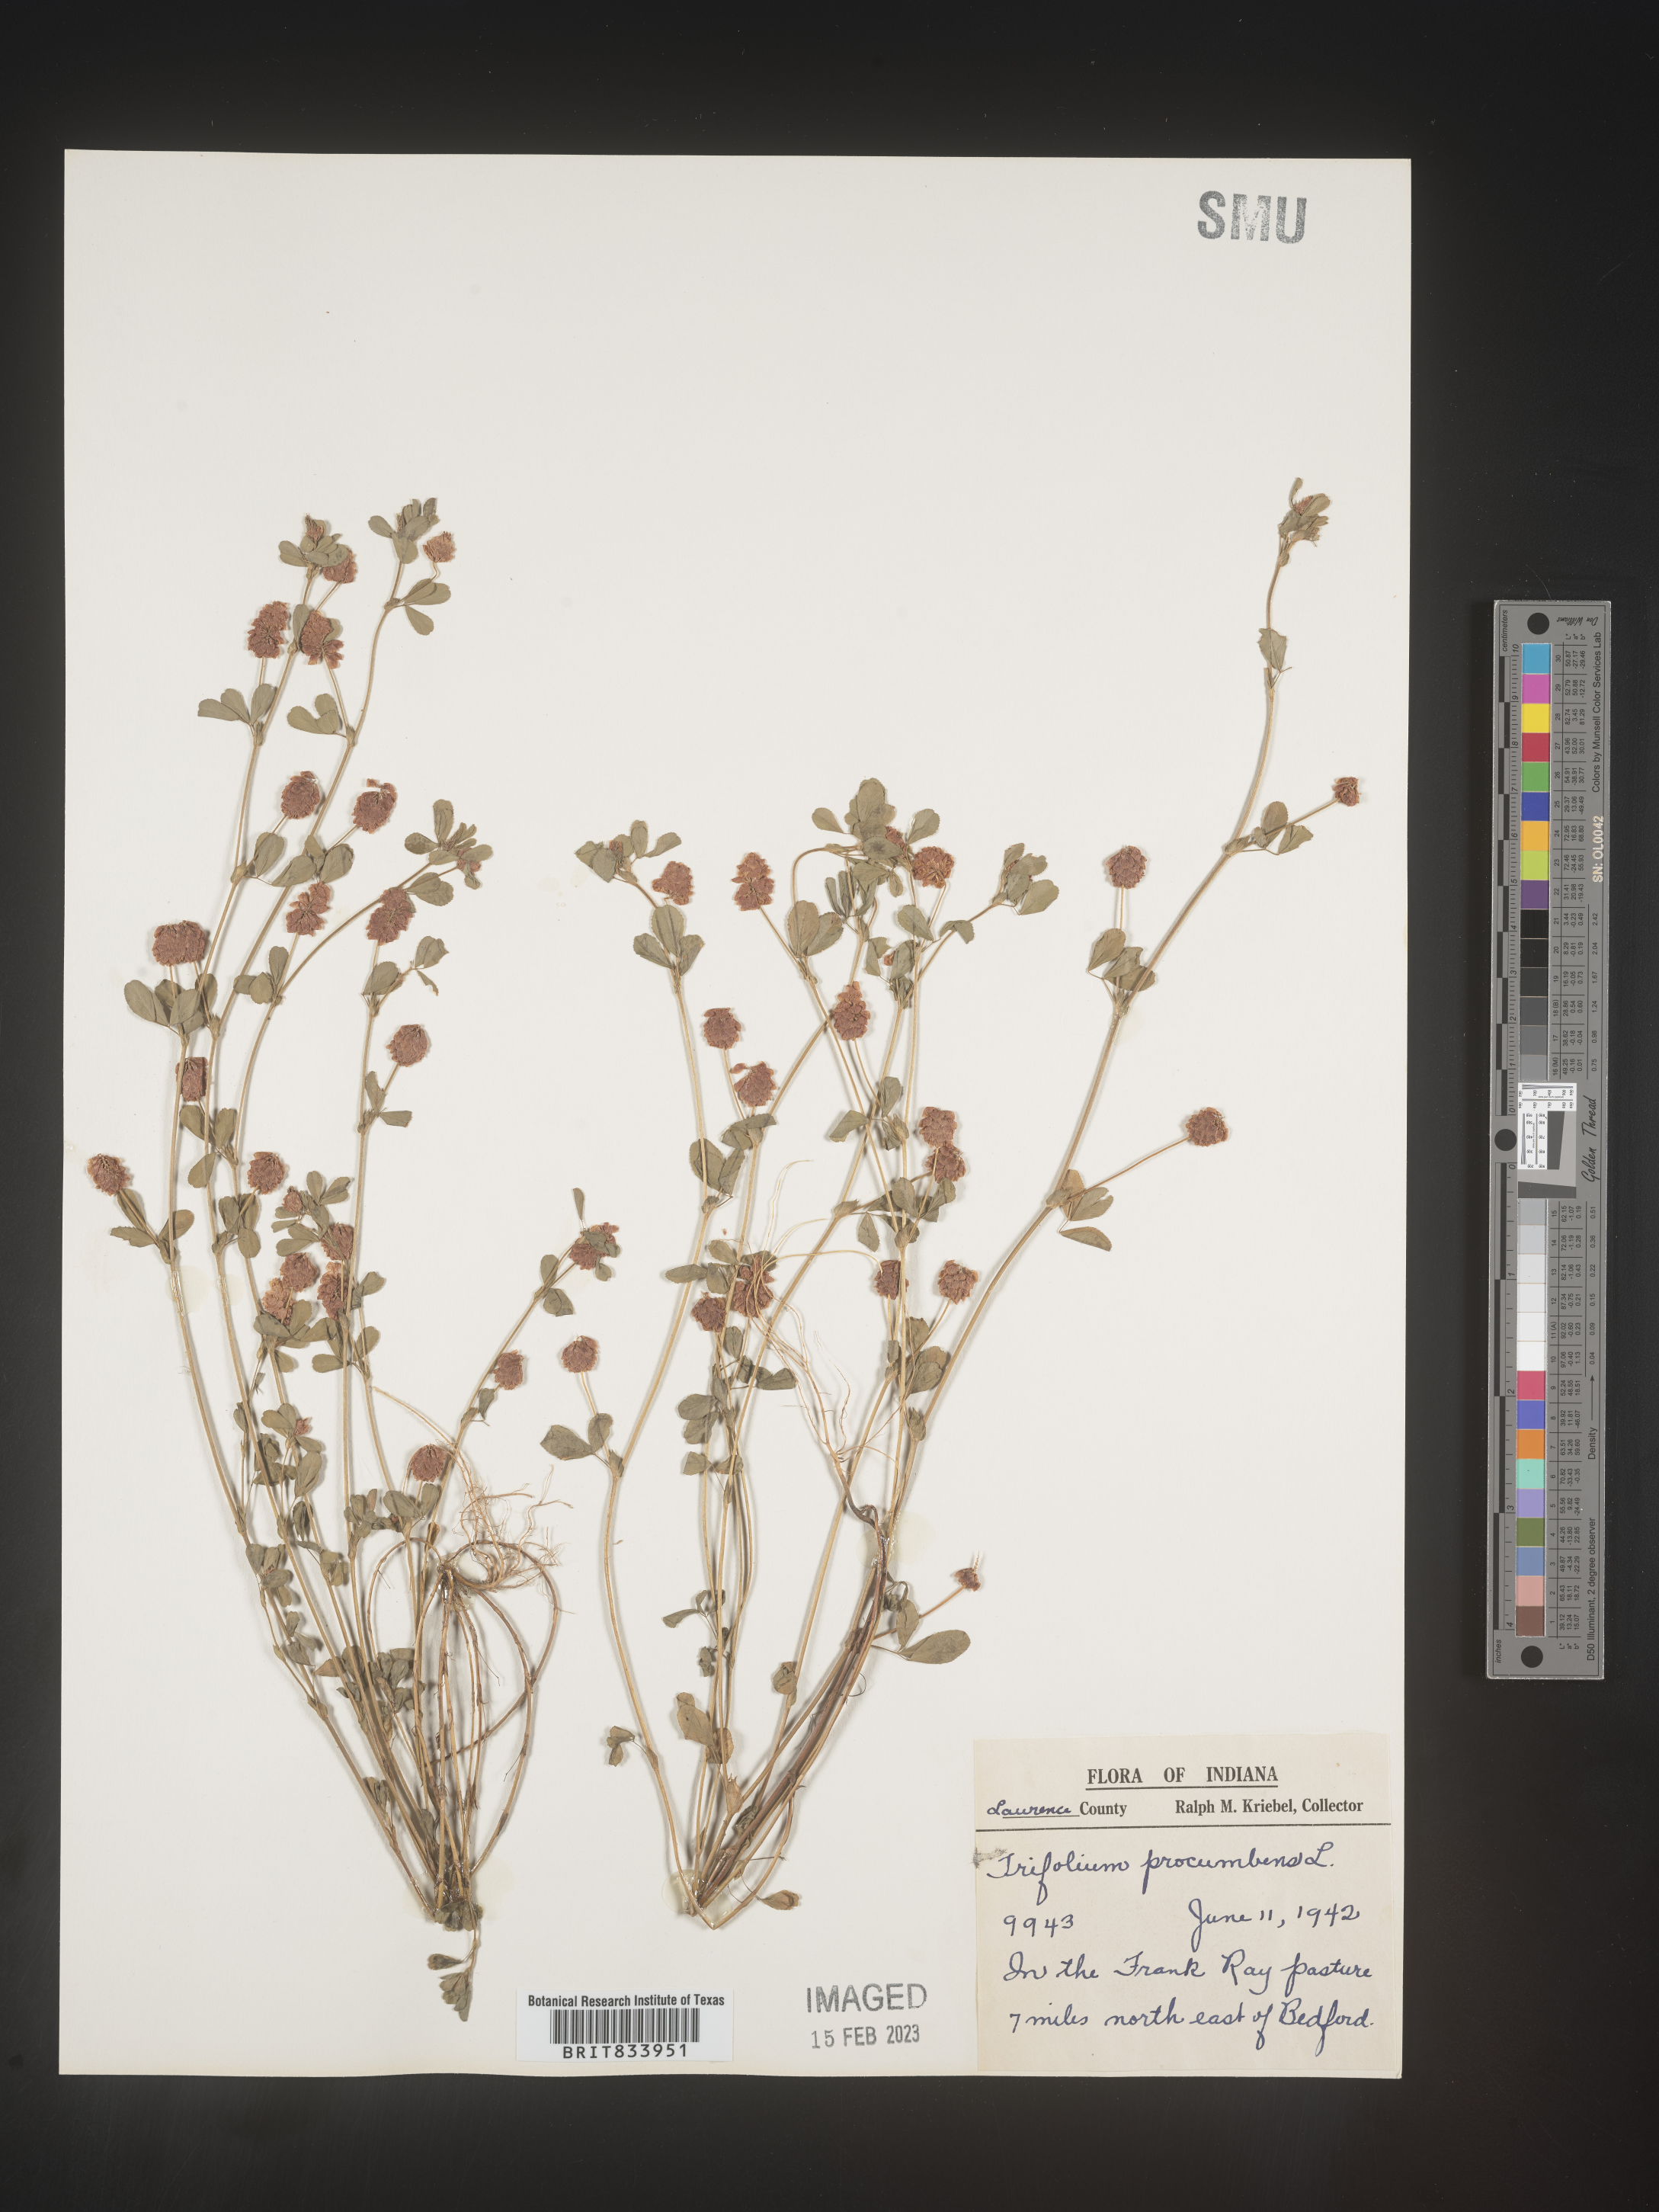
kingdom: Plantae
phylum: Tracheophyta
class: Magnoliopsida
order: Fabales
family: Fabaceae
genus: Trifolium
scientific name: Trifolium campestre
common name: Field clover
